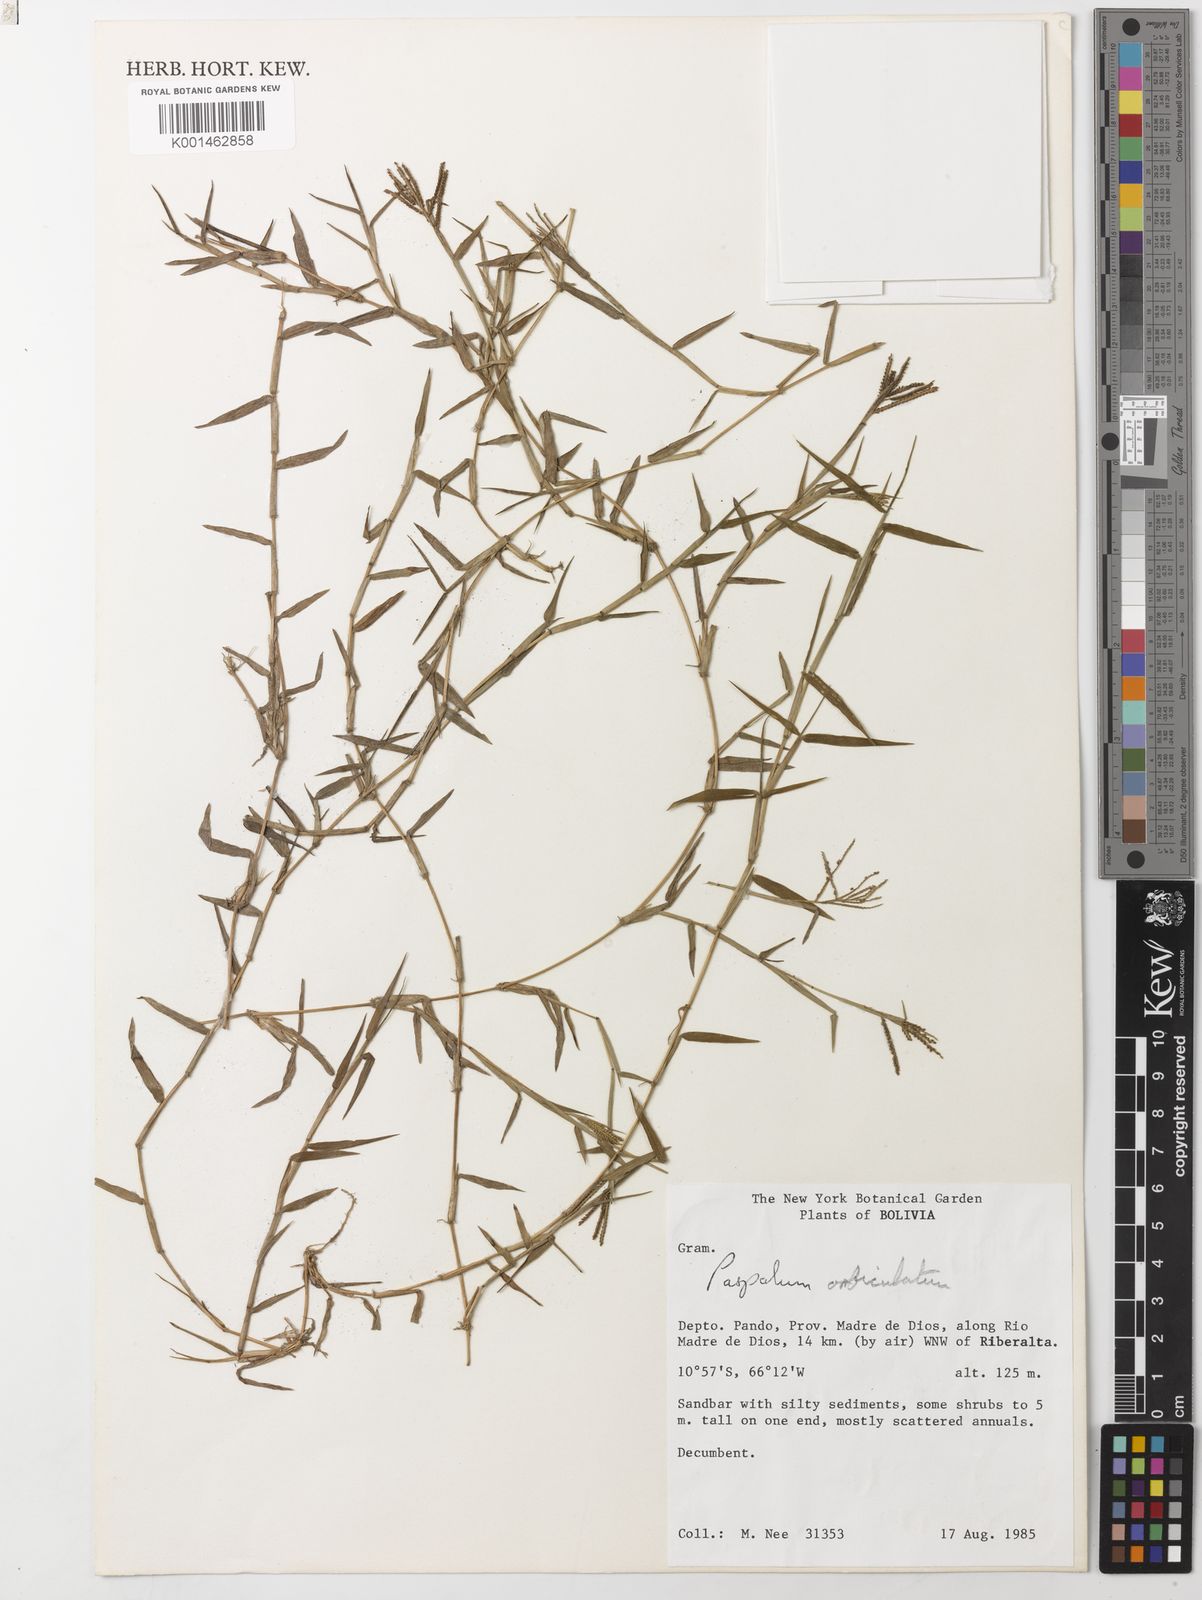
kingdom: Plantae
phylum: Tracheophyta
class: Liliopsida
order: Poales
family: Poaceae
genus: Paspalum
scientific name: Paspalum orbiculatum
